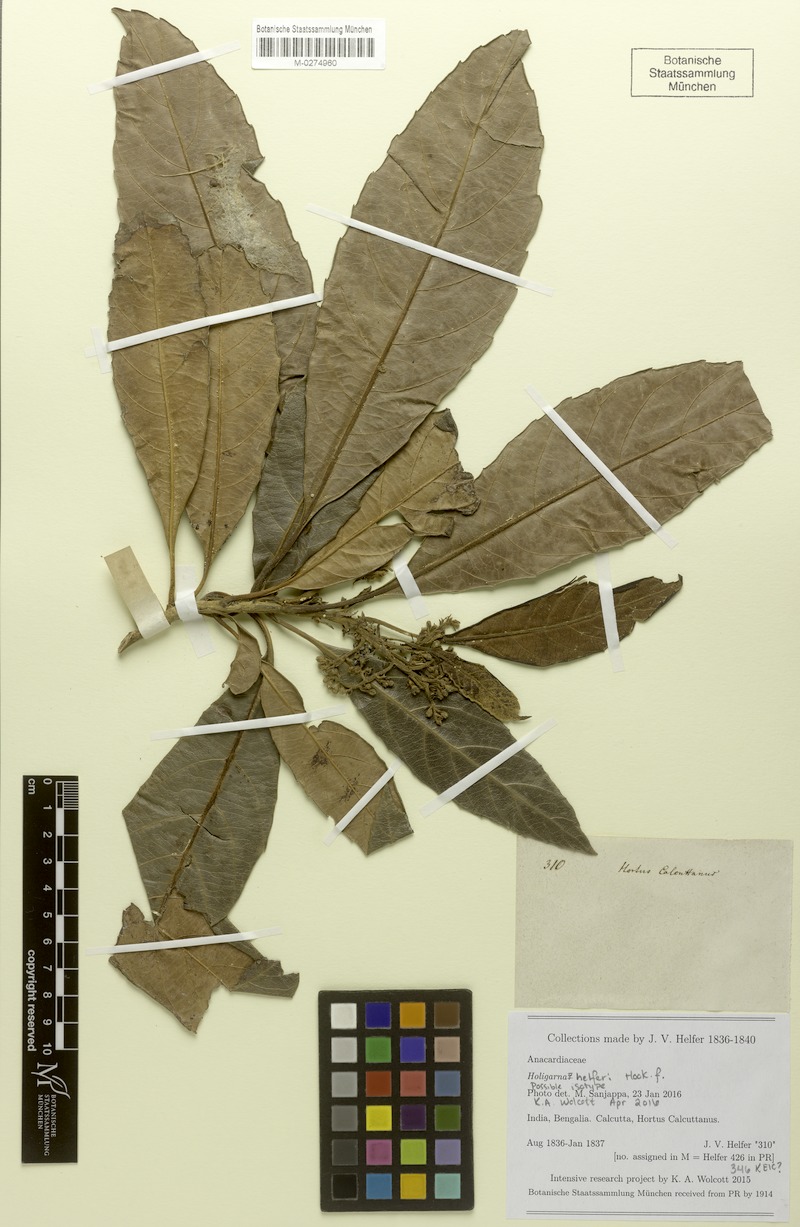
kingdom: Plantae
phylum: Tracheophyta
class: Magnoliopsida
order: Sapindales
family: Anacardiaceae
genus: Holigarna
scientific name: Holigarna helferi
